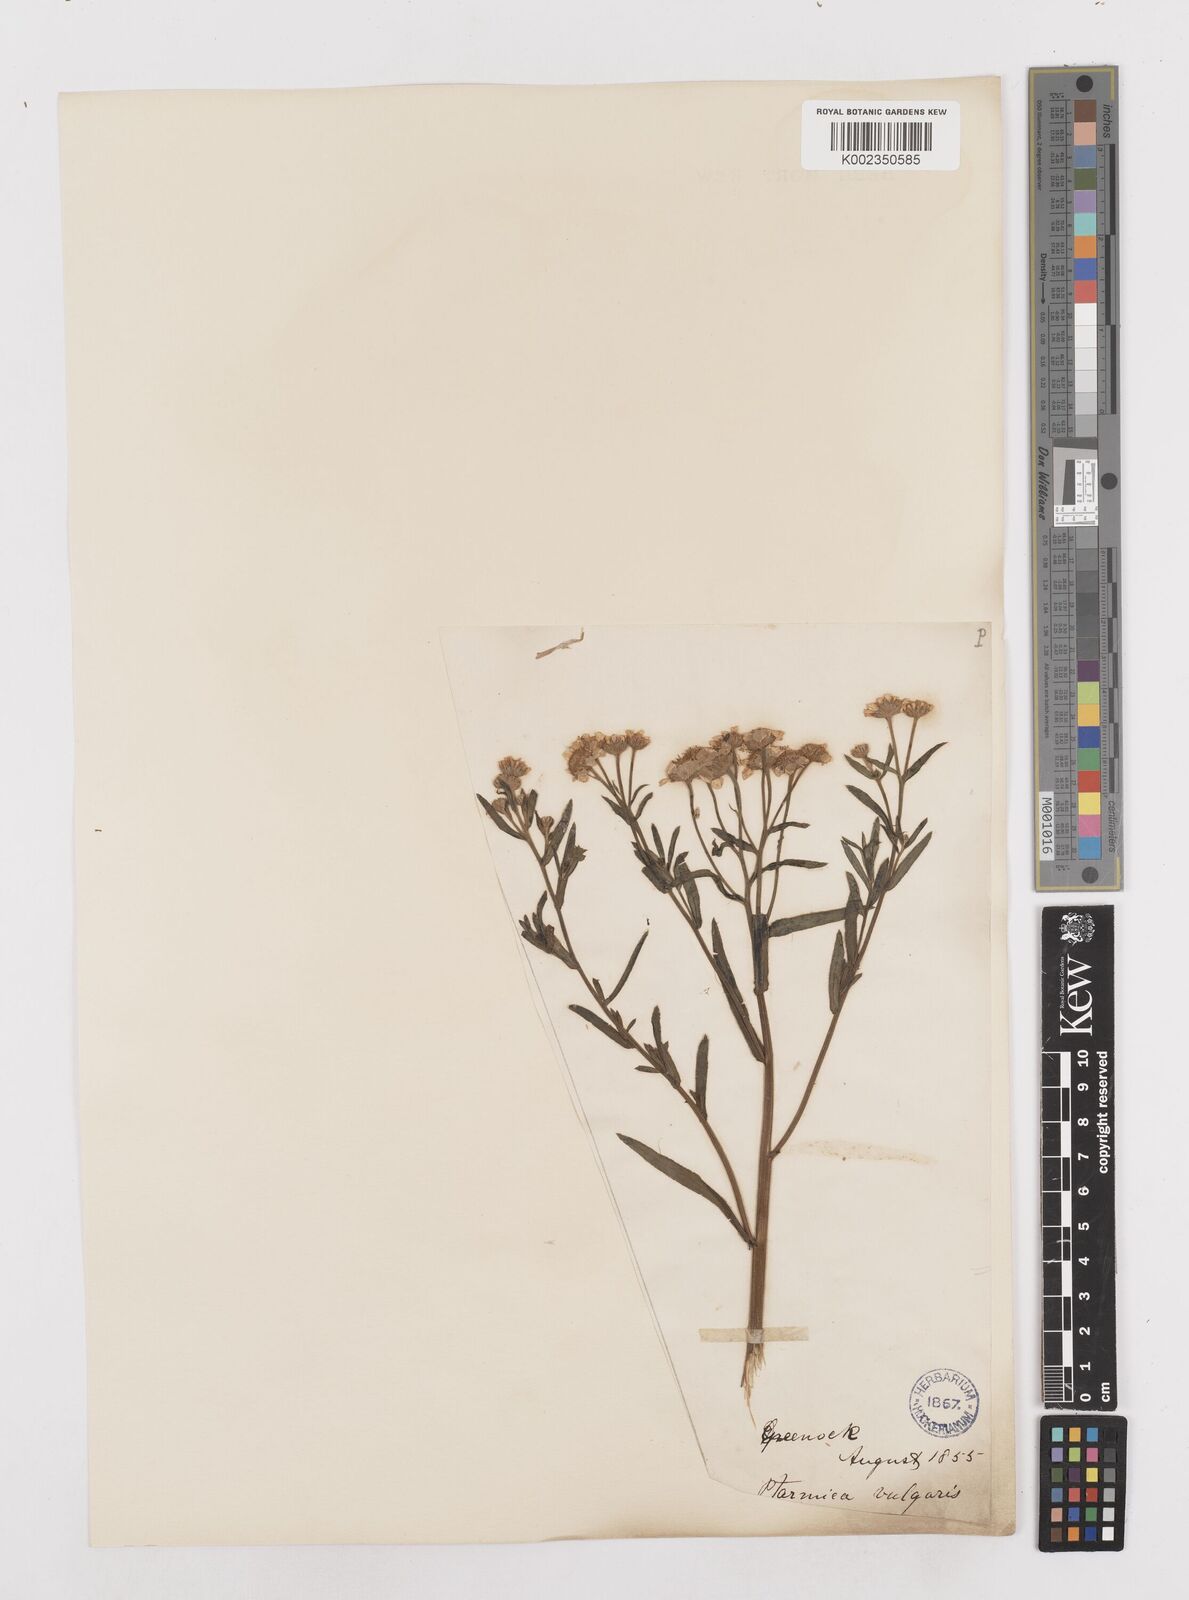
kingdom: Plantae
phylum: Tracheophyta
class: Magnoliopsida
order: Asterales
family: Asteraceae
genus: Achillea
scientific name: Achillea
